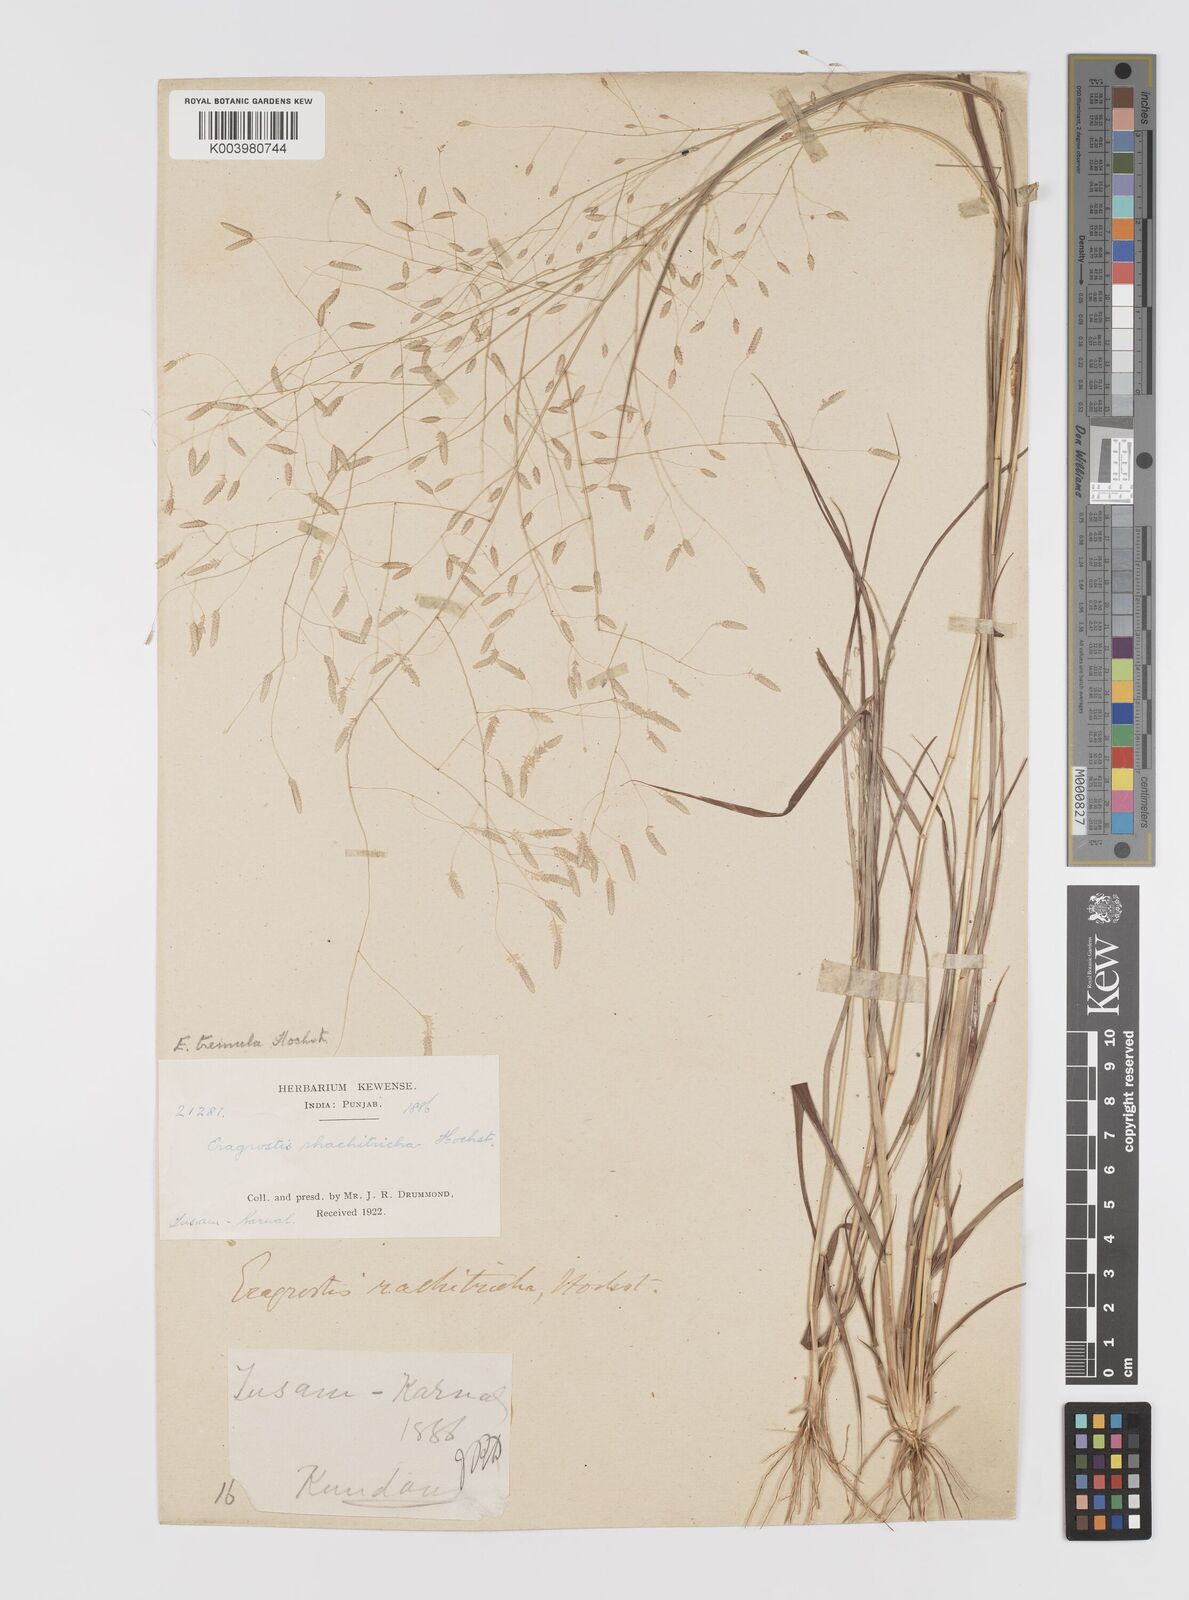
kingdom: Plantae
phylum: Tracheophyta
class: Liliopsida
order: Poales
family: Poaceae
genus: Eragrostis
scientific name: Eragrostis tremula
